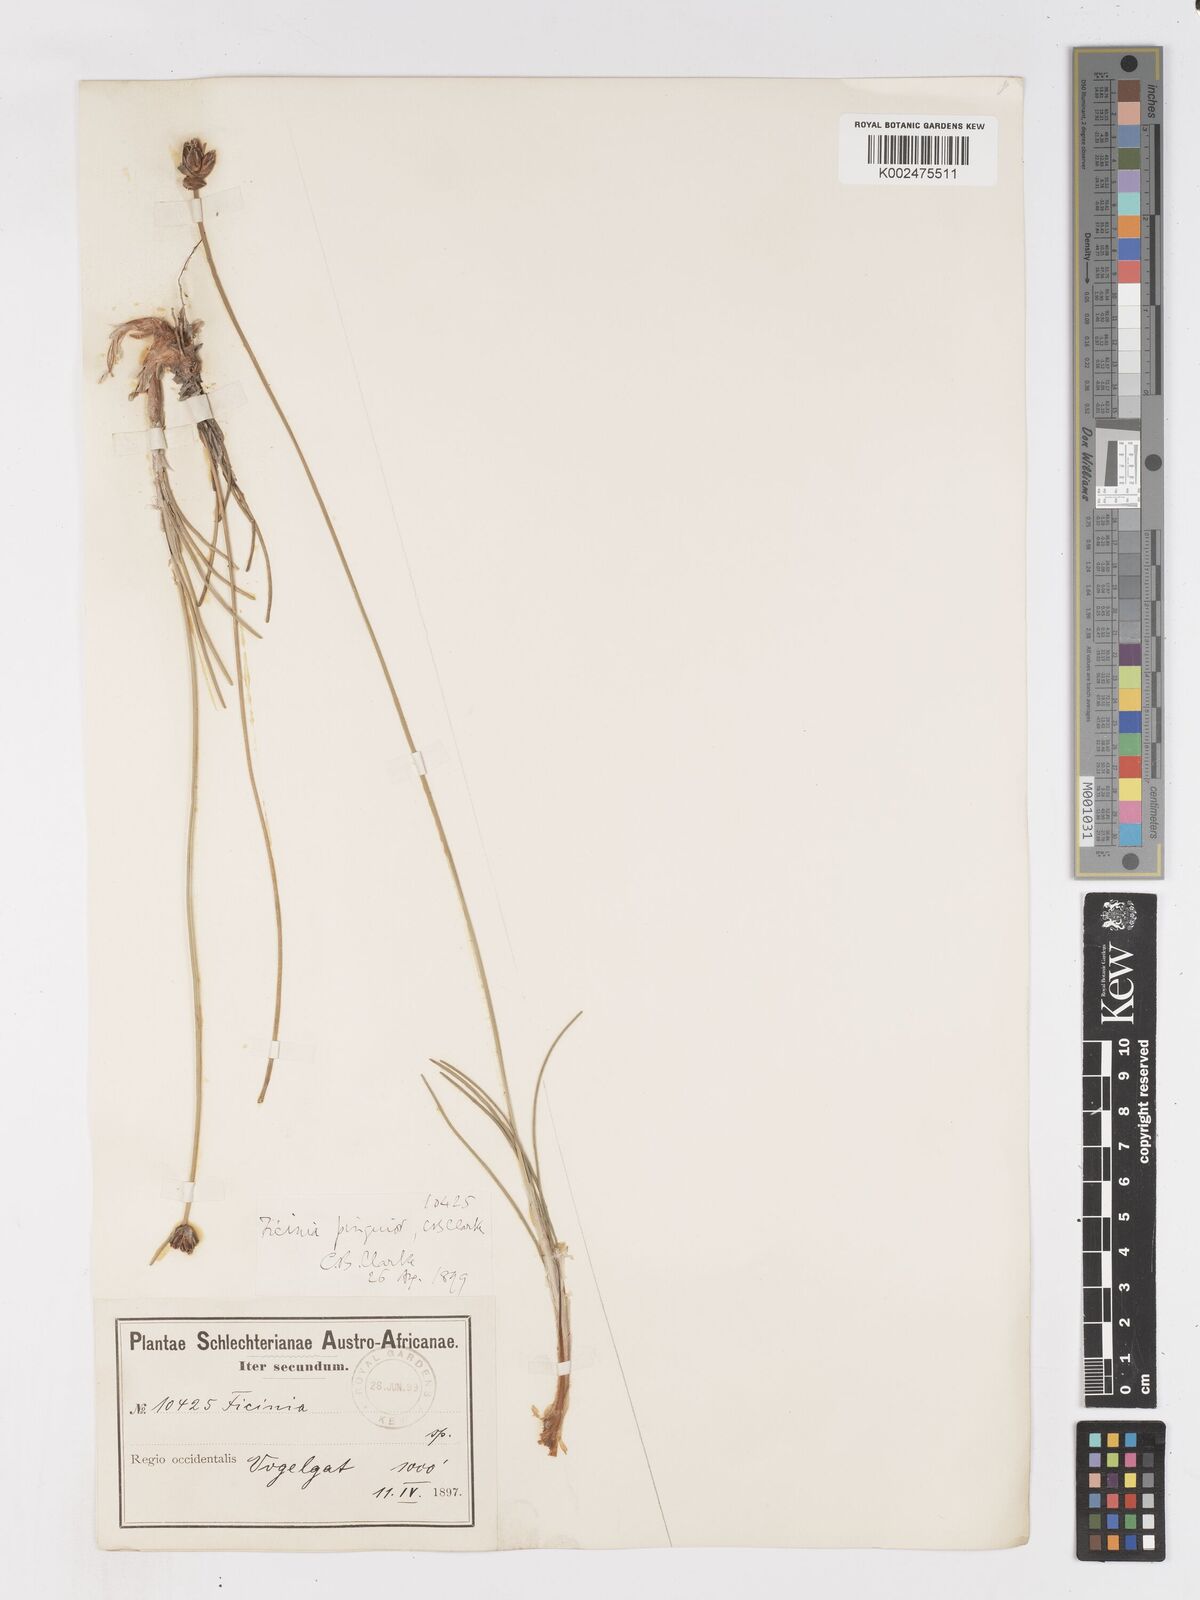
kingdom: Plantae
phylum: Tracheophyta
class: Liliopsida
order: Poales
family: Cyperaceae
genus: Ficinia
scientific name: Ficinia pinguior
